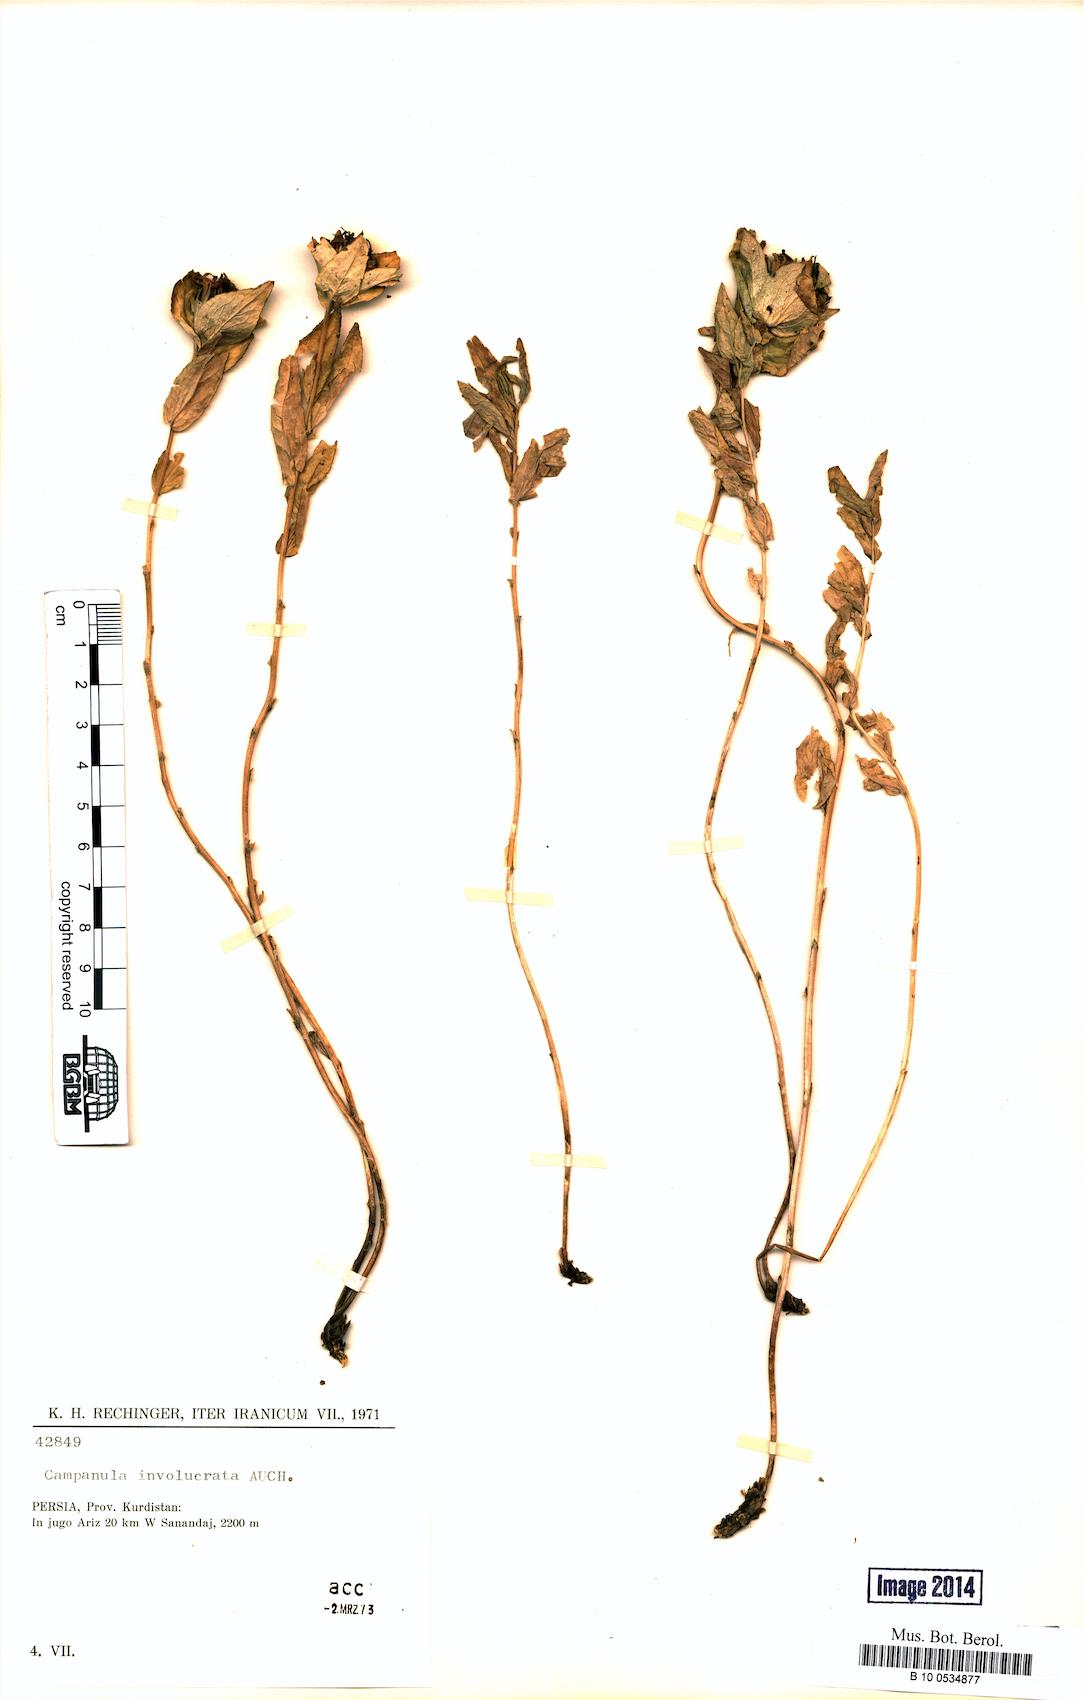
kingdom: Plantae
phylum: Tracheophyta
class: Magnoliopsida
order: Asterales
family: Campanulaceae
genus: Campanula
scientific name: Campanula involucrata
